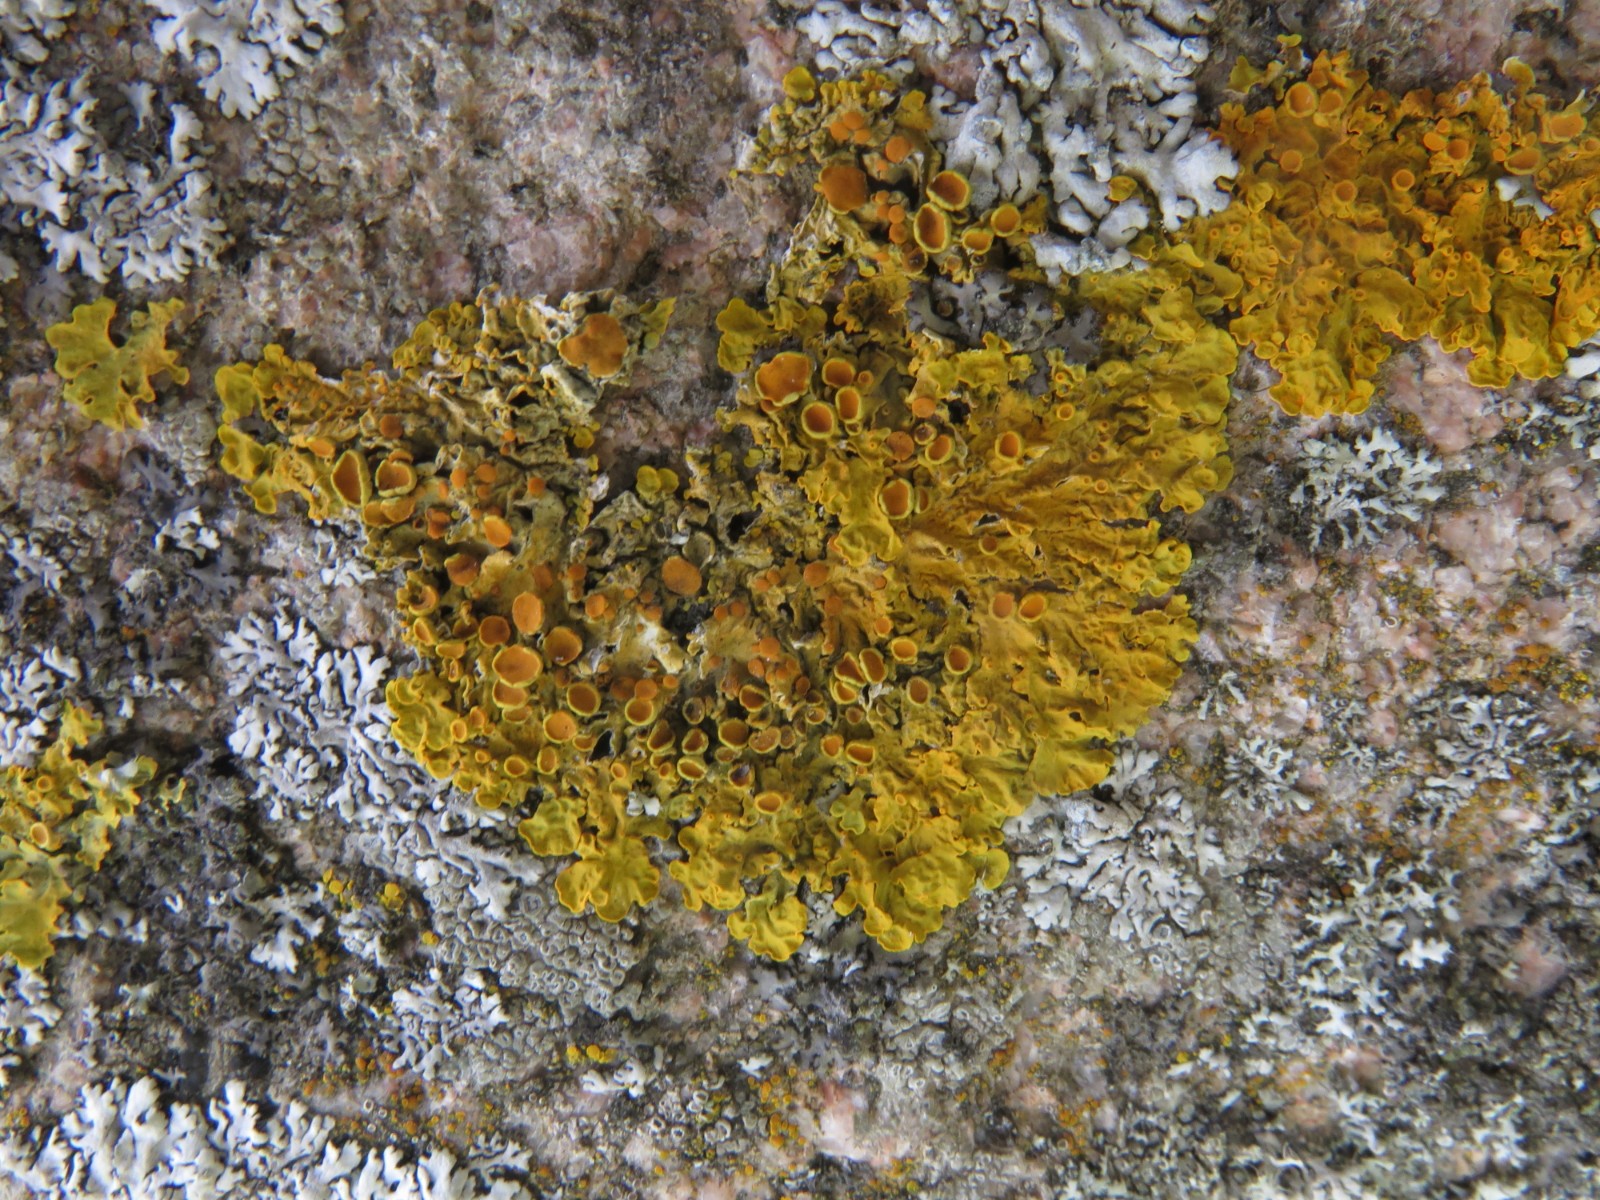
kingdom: Fungi
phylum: Ascomycota
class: Lecanoromycetes
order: Teloschistales
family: Teloschistaceae
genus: Xanthoria
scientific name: Xanthoria parietina
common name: almindelig væggelav
